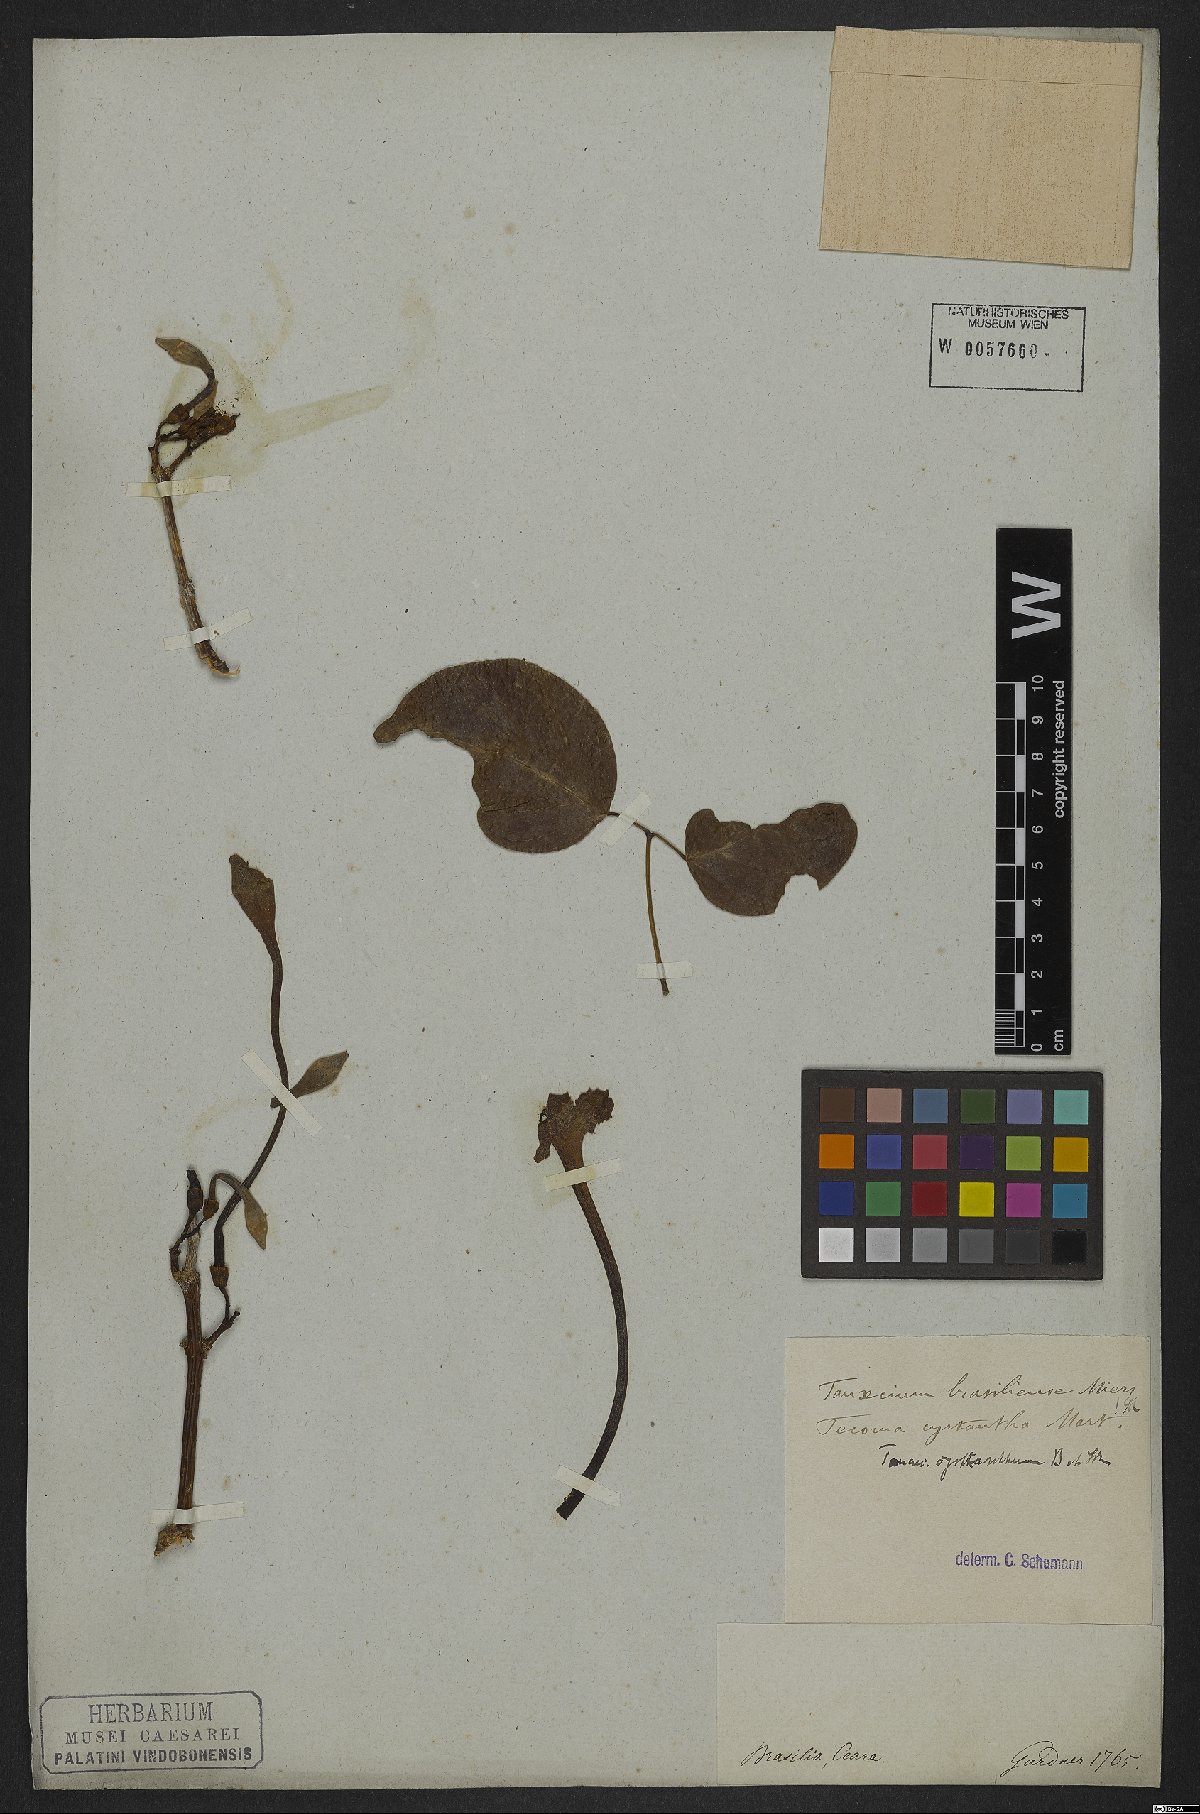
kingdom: Plantae
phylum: Tracheophyta
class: Magnoliopsida
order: Lamiales
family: Bignoniaceae
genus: Tanaecium
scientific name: Tanaecium cyrtanthum
